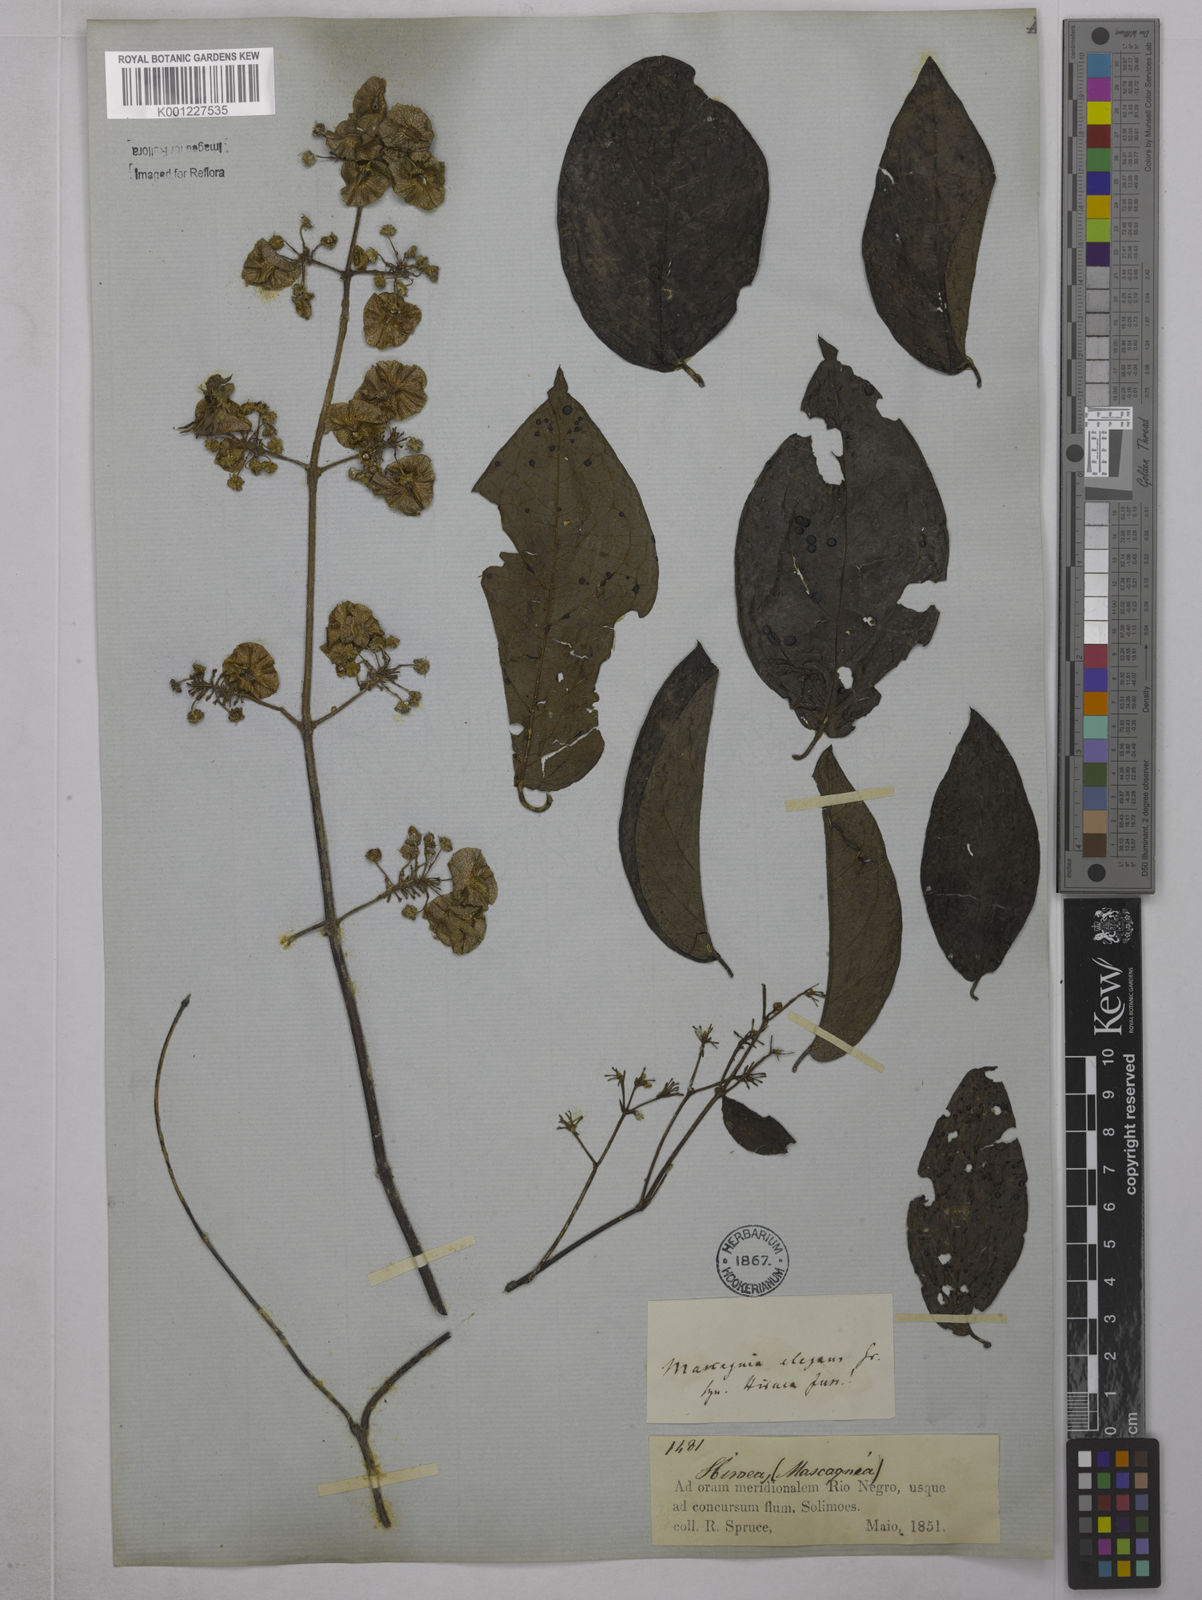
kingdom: Plantae
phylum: Tracheophyta
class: Magnoliopsida
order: Malpighiales
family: Malpighiaceae
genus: Heteropterys
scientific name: Heteropterys complicata
